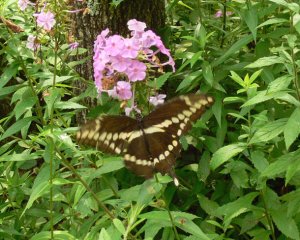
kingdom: Animalia
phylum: Arthropoda
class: Insecta
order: Lepidoptera
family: Papilionidae
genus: Papilio
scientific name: Papilio cresphontes
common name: Eastern Giant Swallowtail
